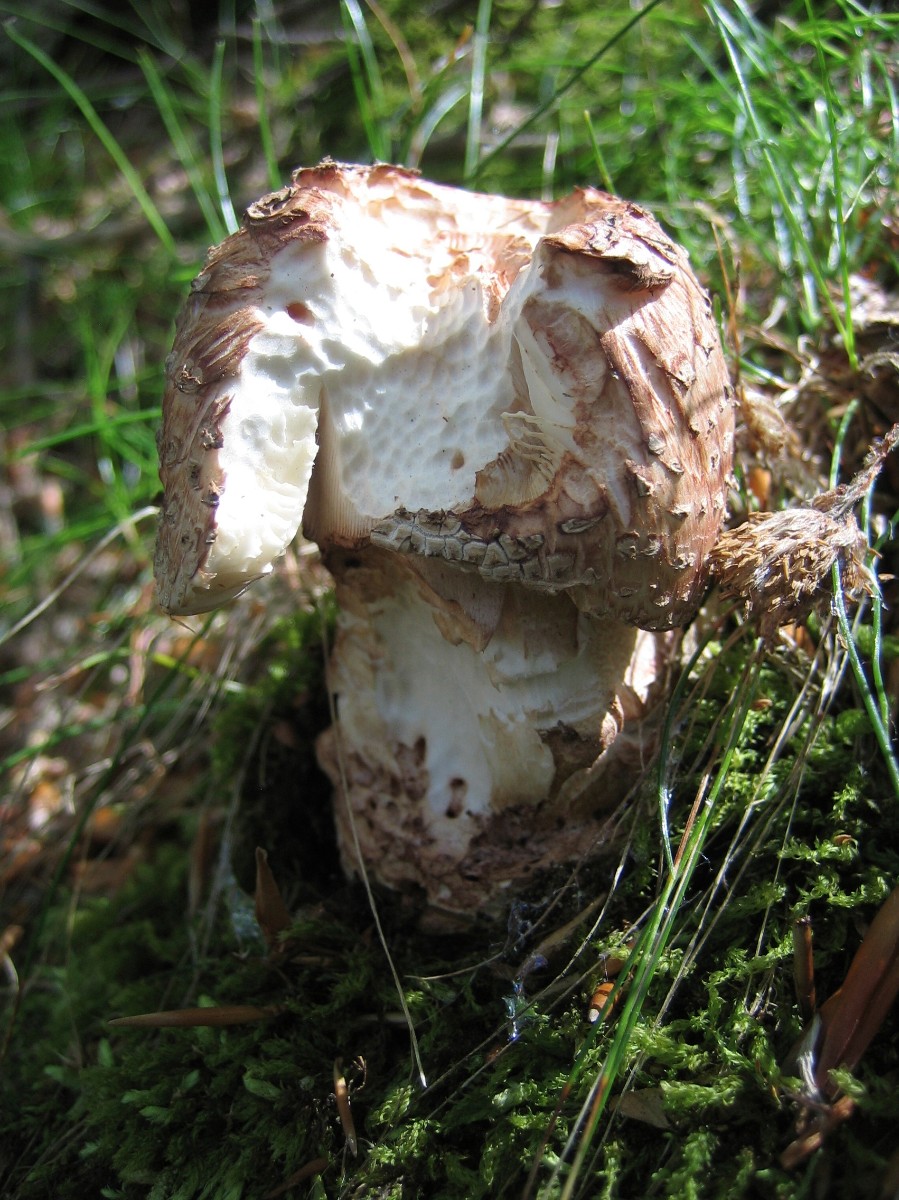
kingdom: Fungi
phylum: Basidiomycota
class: Agaricomycetes
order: Agaricales
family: Amanitaceae
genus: Amanita
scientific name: Amanita rubescens
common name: rødmende fluesvamp
